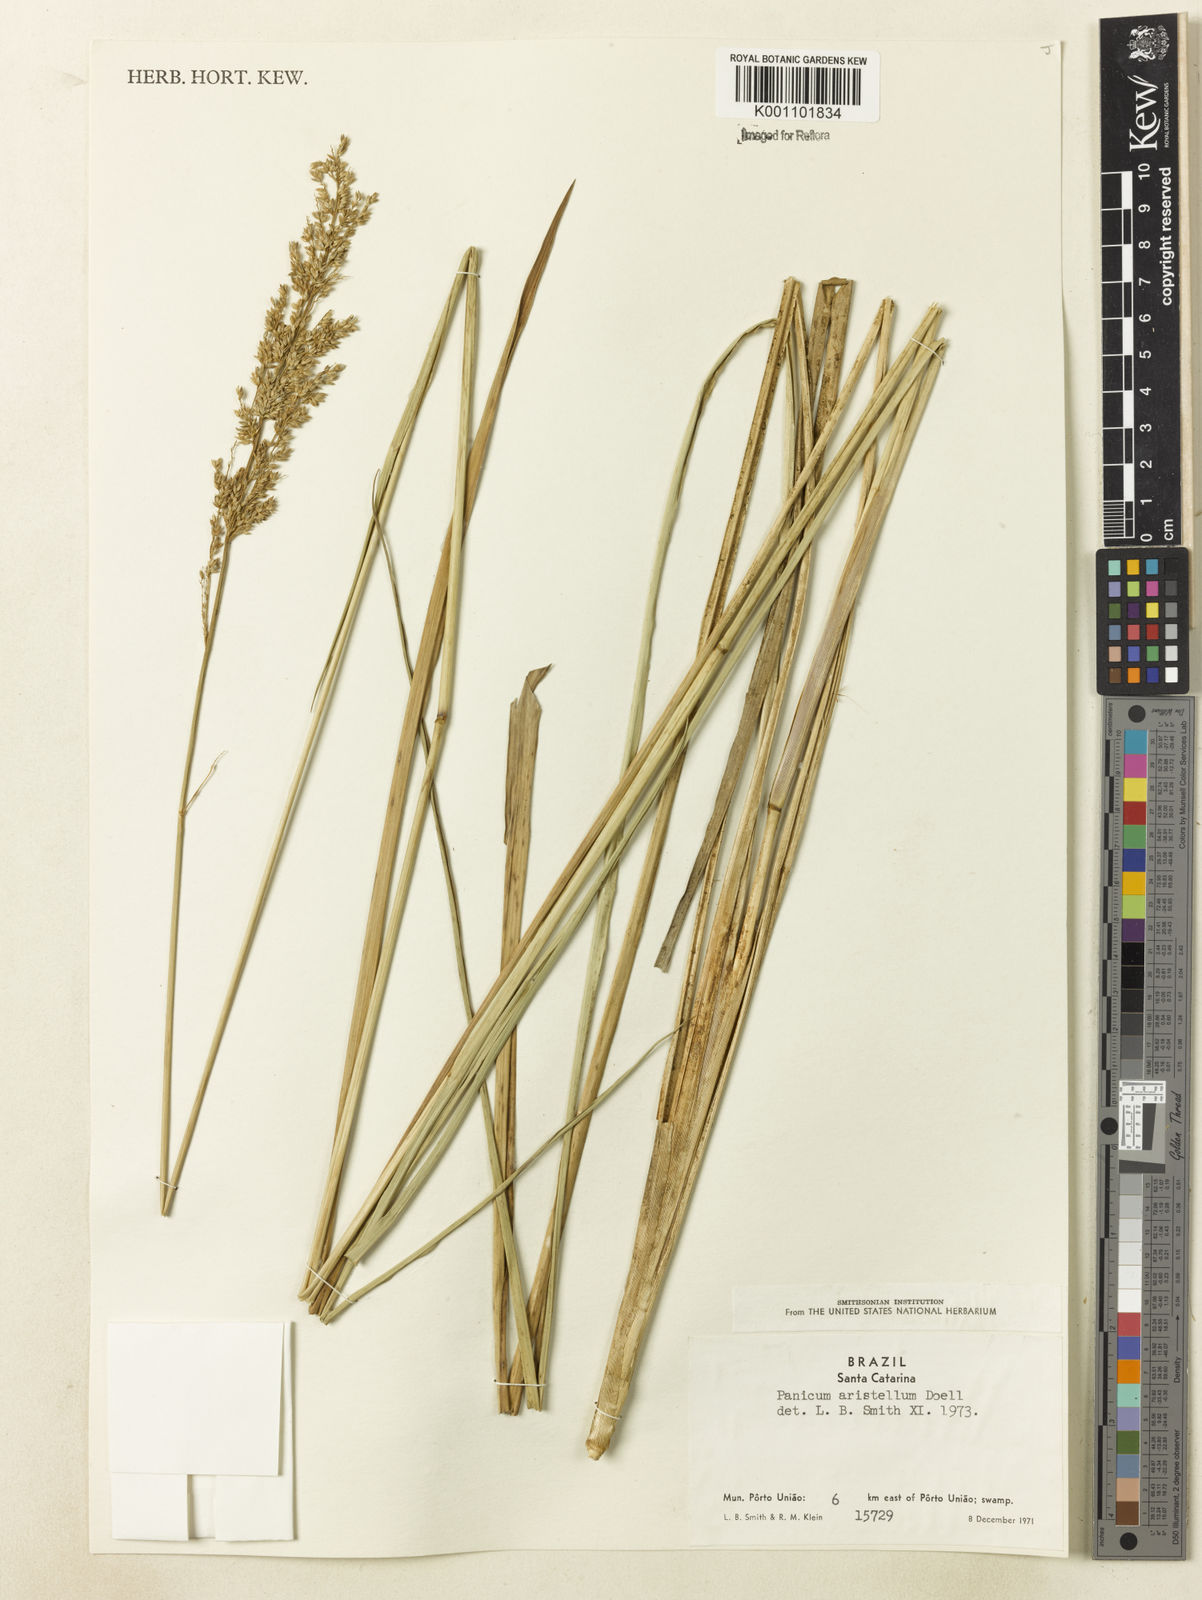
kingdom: Plantae
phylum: Tracheophyta
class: Liliopsida
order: Poales
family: Poaceae
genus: Panicum
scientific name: Panicum
